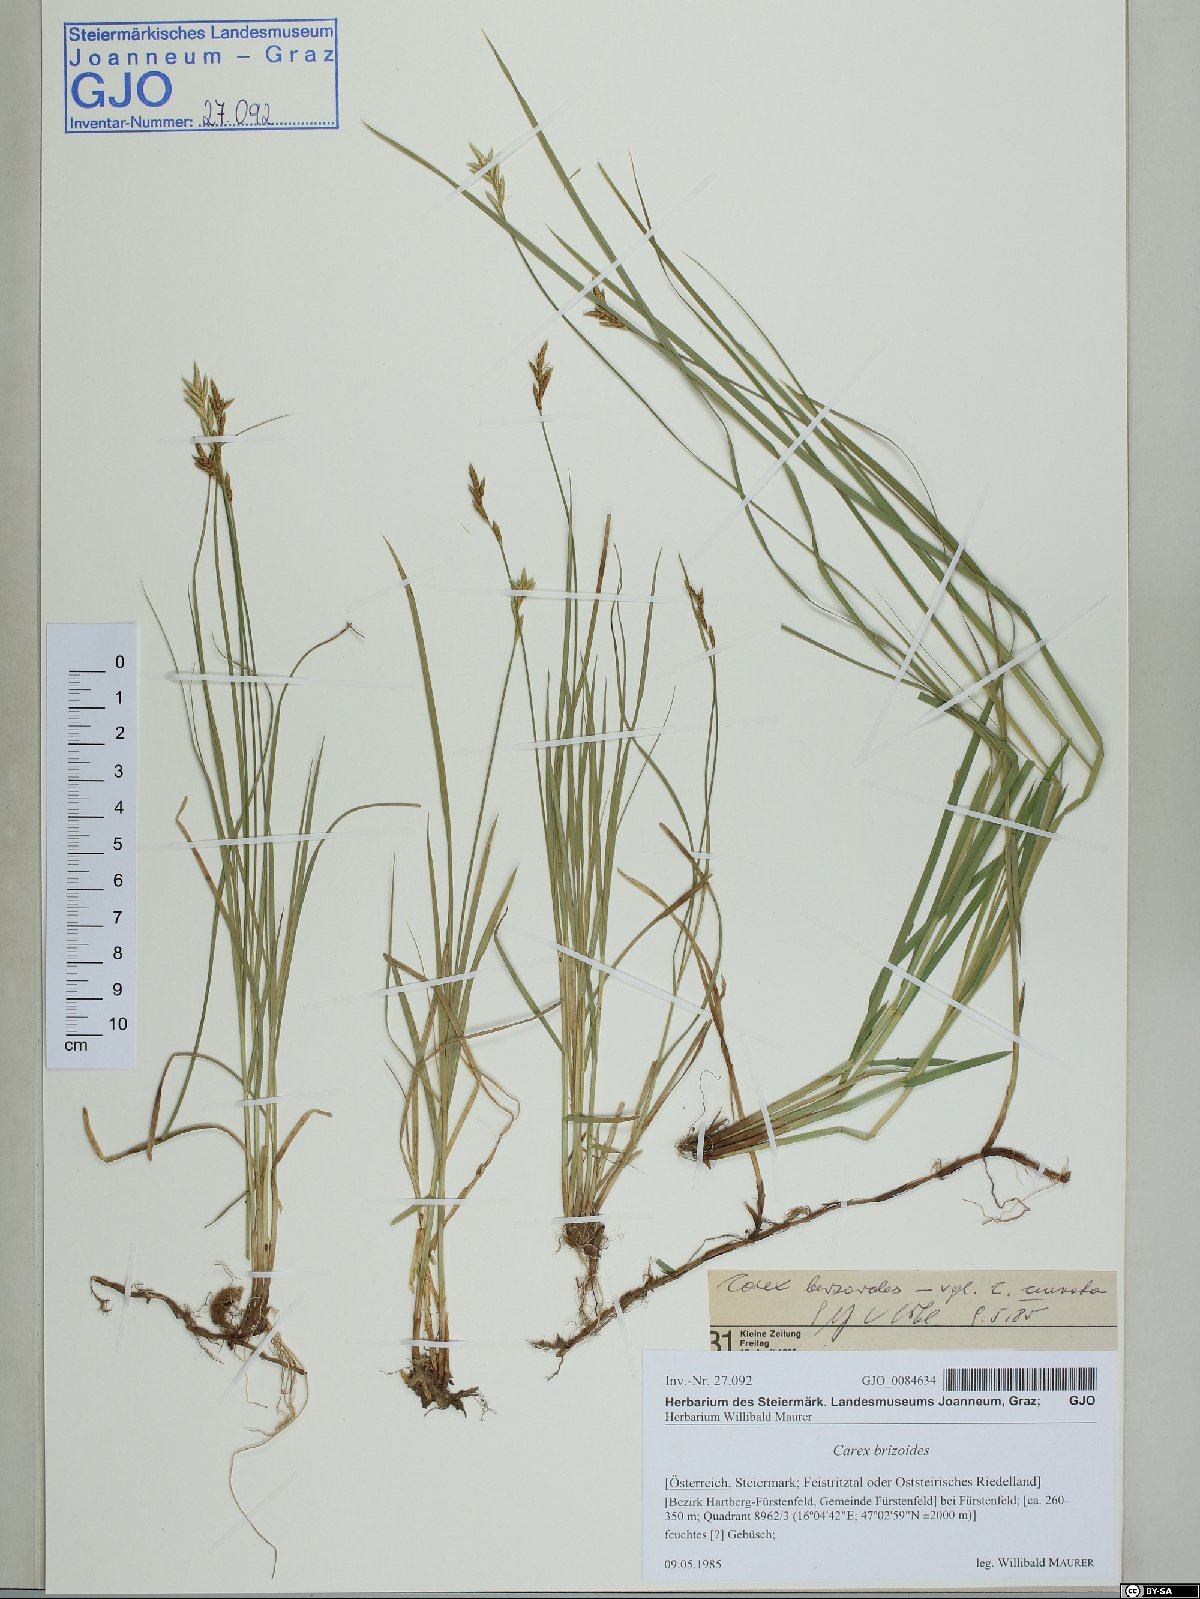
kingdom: Plantae
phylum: Tracheophyta
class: Liliopsida
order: Poales
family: Cyperaceae
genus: Carex
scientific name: Carex brizoides
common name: Quaking-grass sedge
